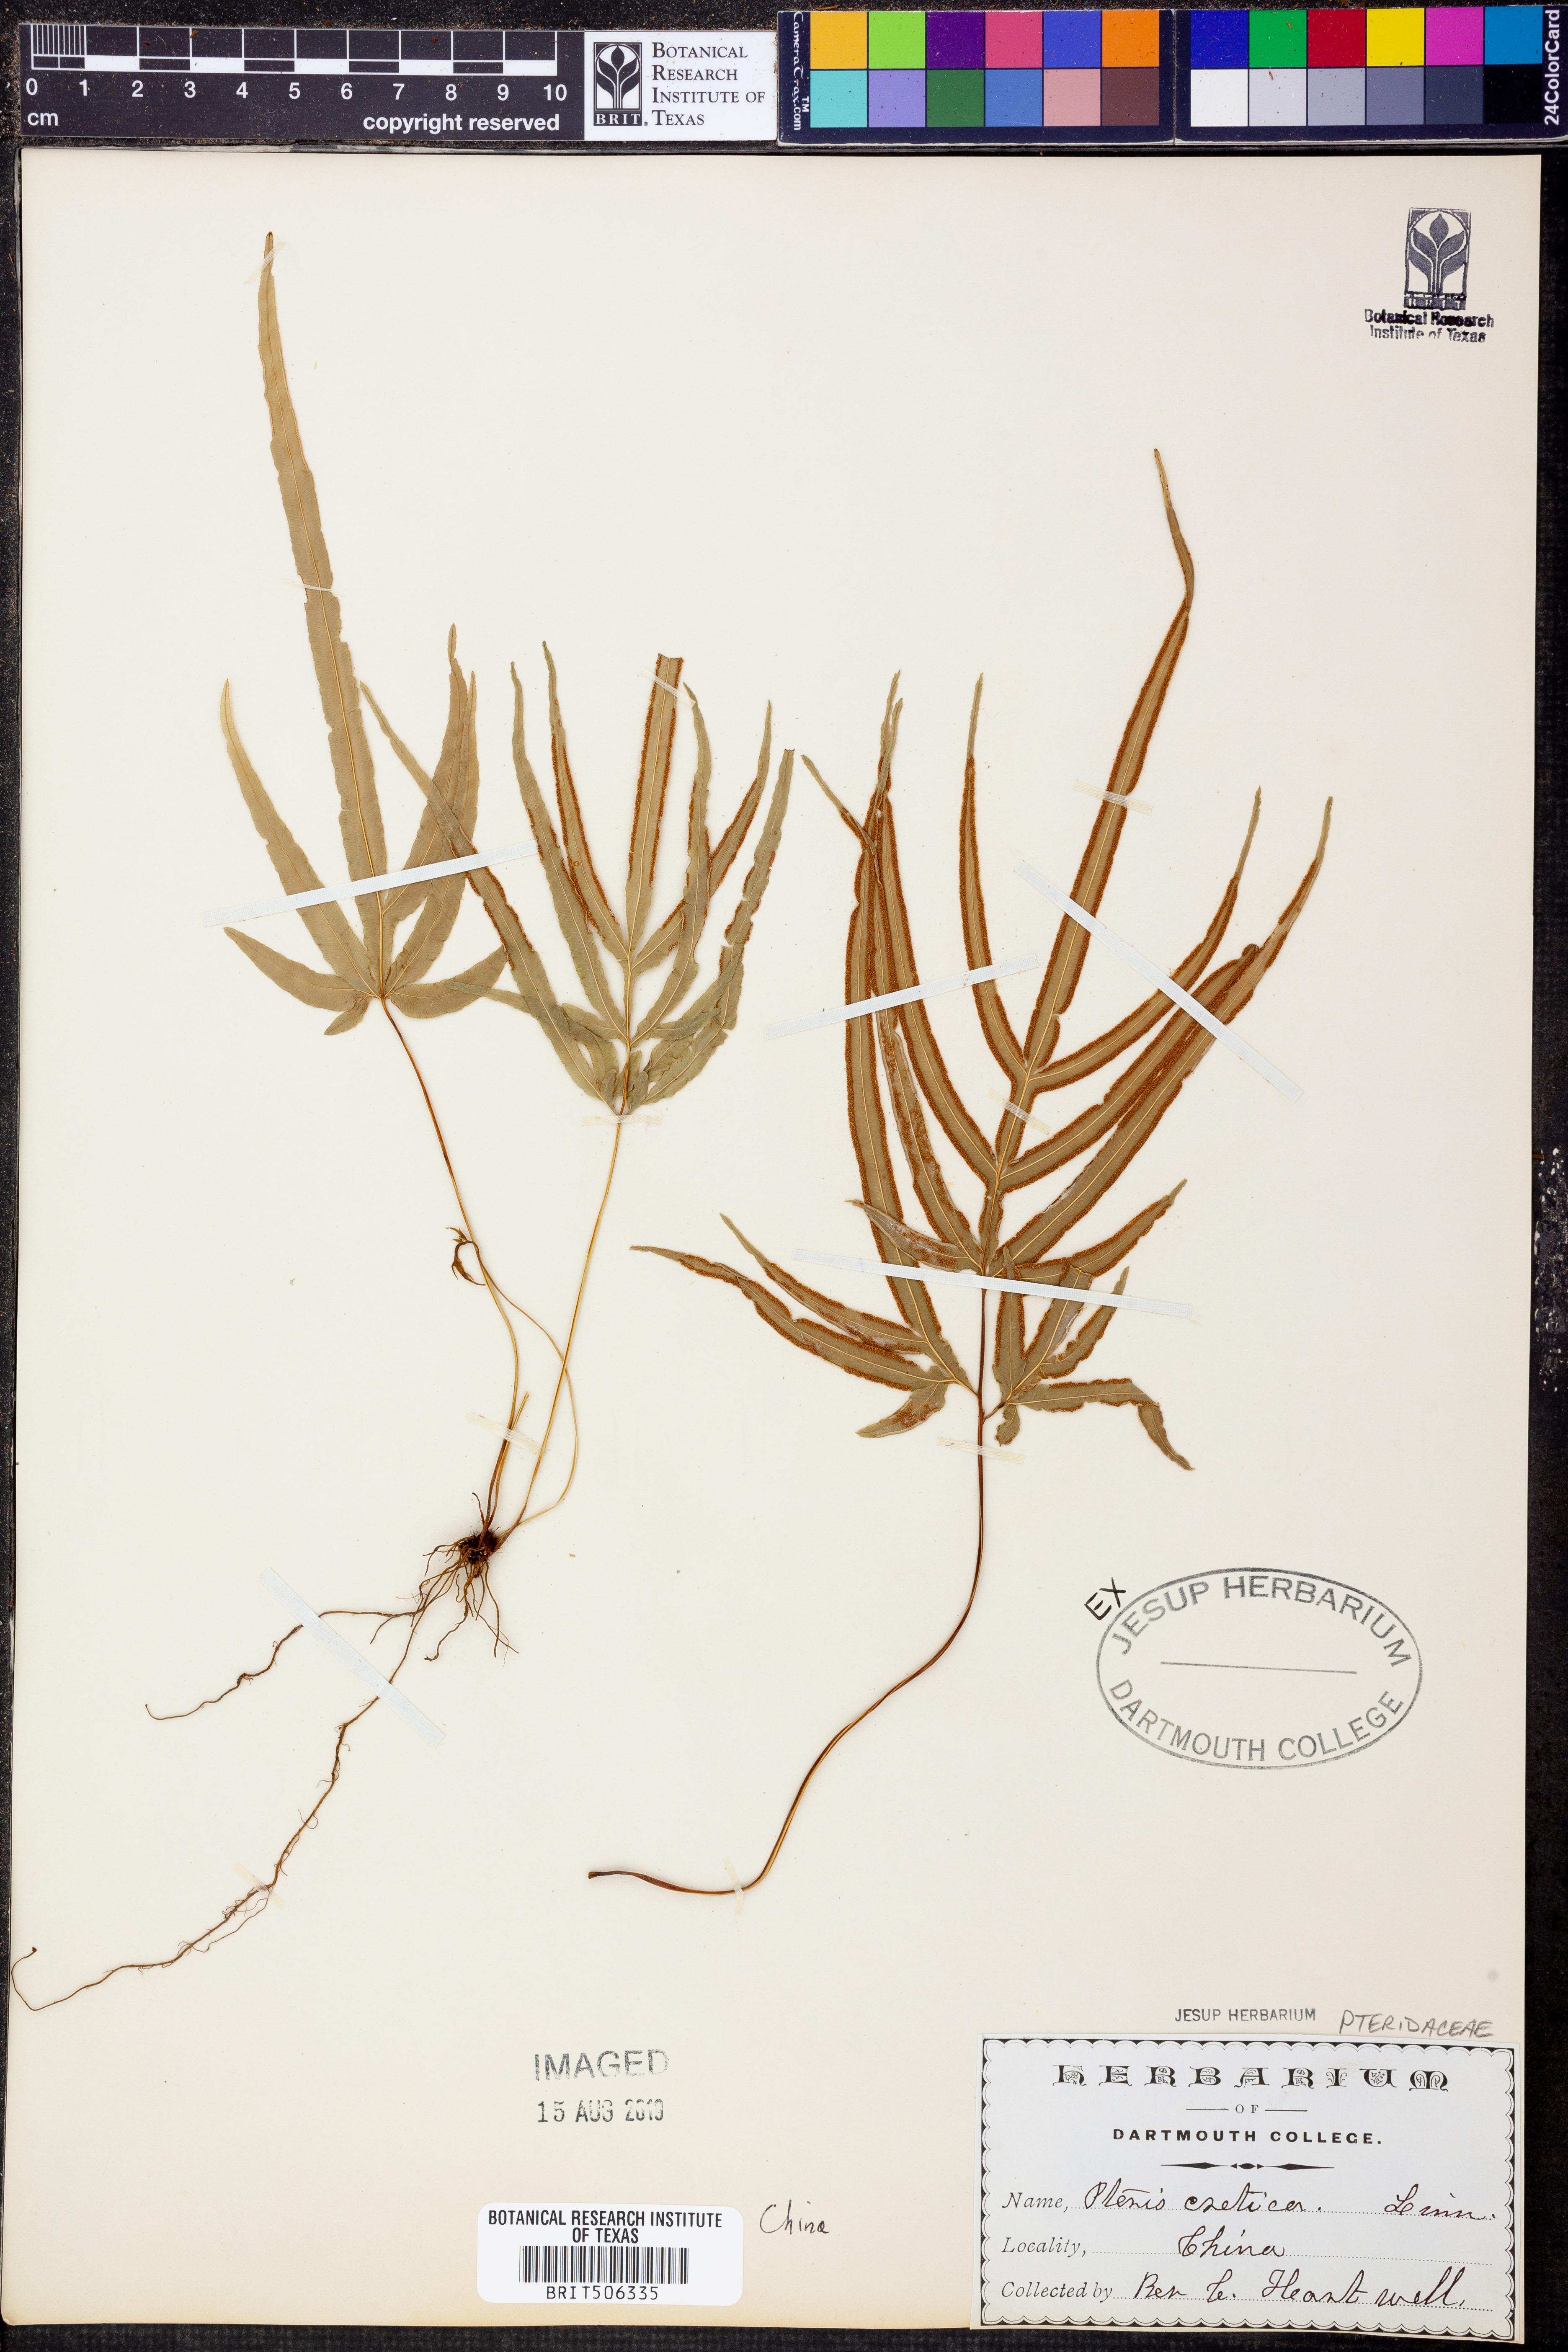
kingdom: Plantae
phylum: Tracheophyta
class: Polypodiopsida
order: Polypodiales
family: Pteridaceae
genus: Pteris
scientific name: Pteris cretica
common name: Ribbon fern
